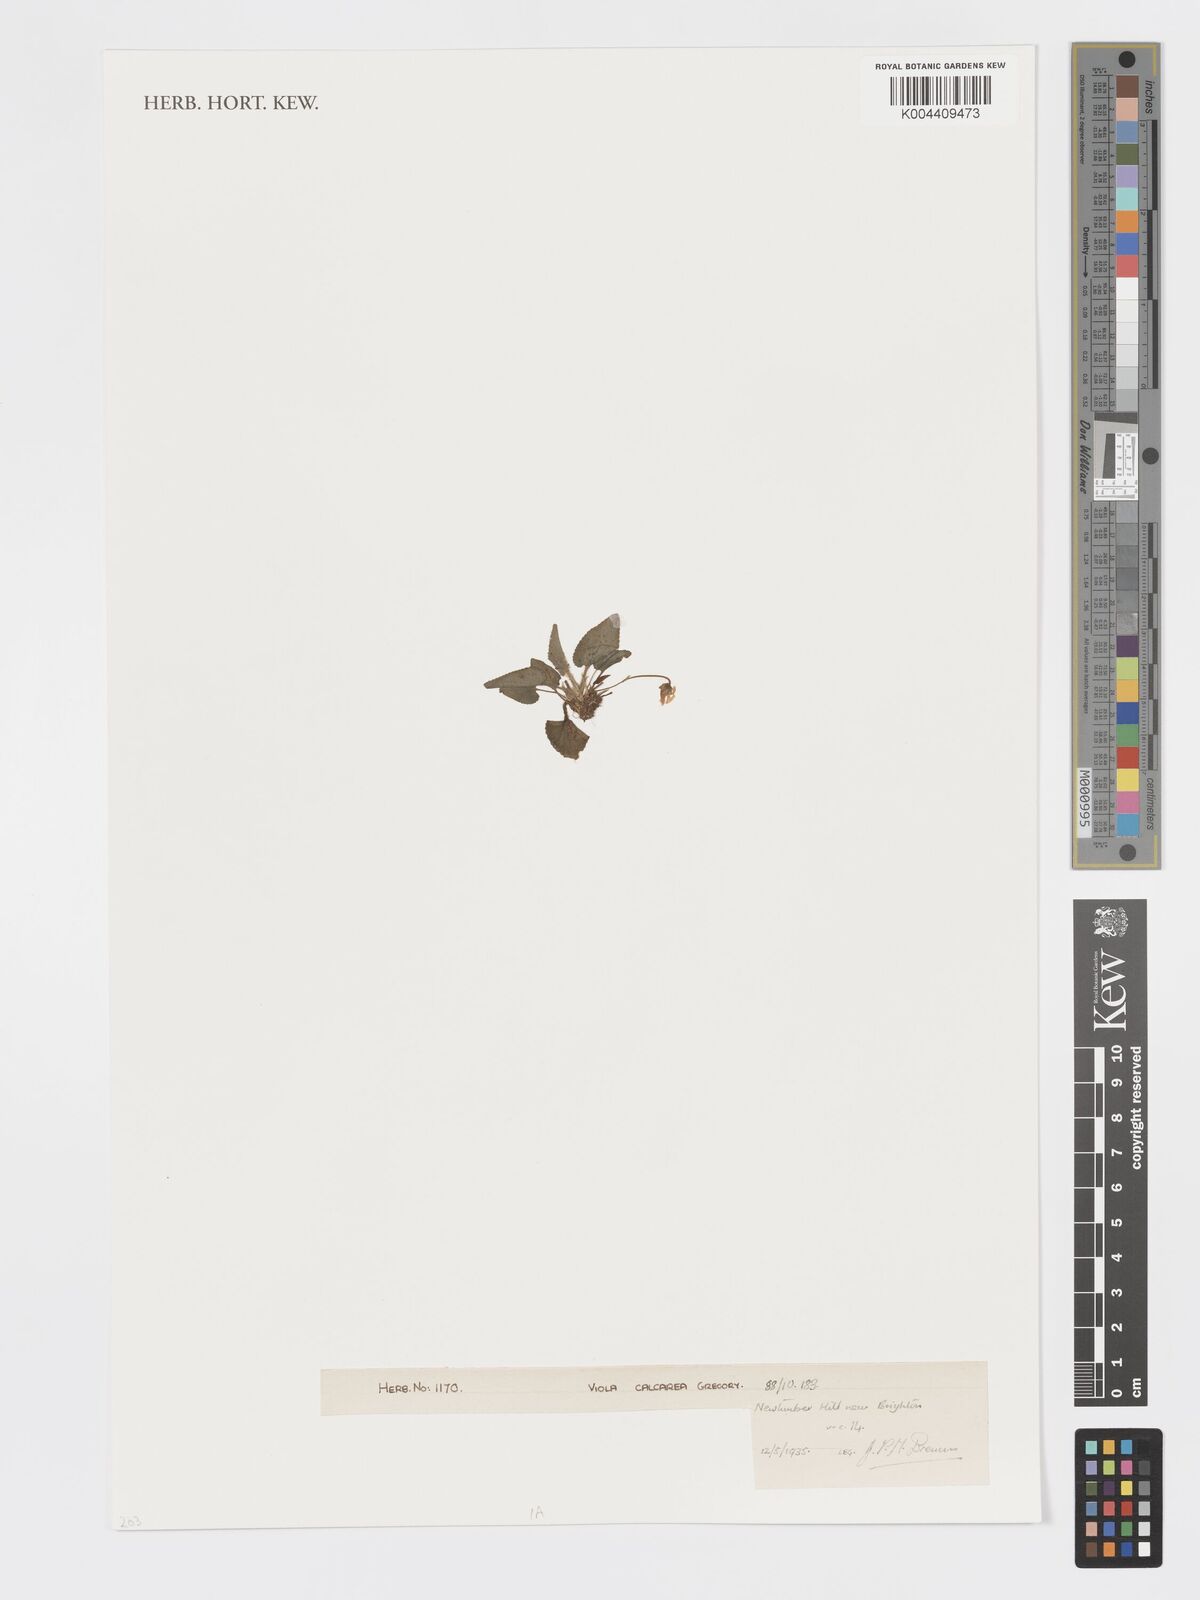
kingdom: Plantae
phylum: Tracheophyta
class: Magnoliopsida
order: Malpighiales
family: Violaceae
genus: Viola
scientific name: Viola
